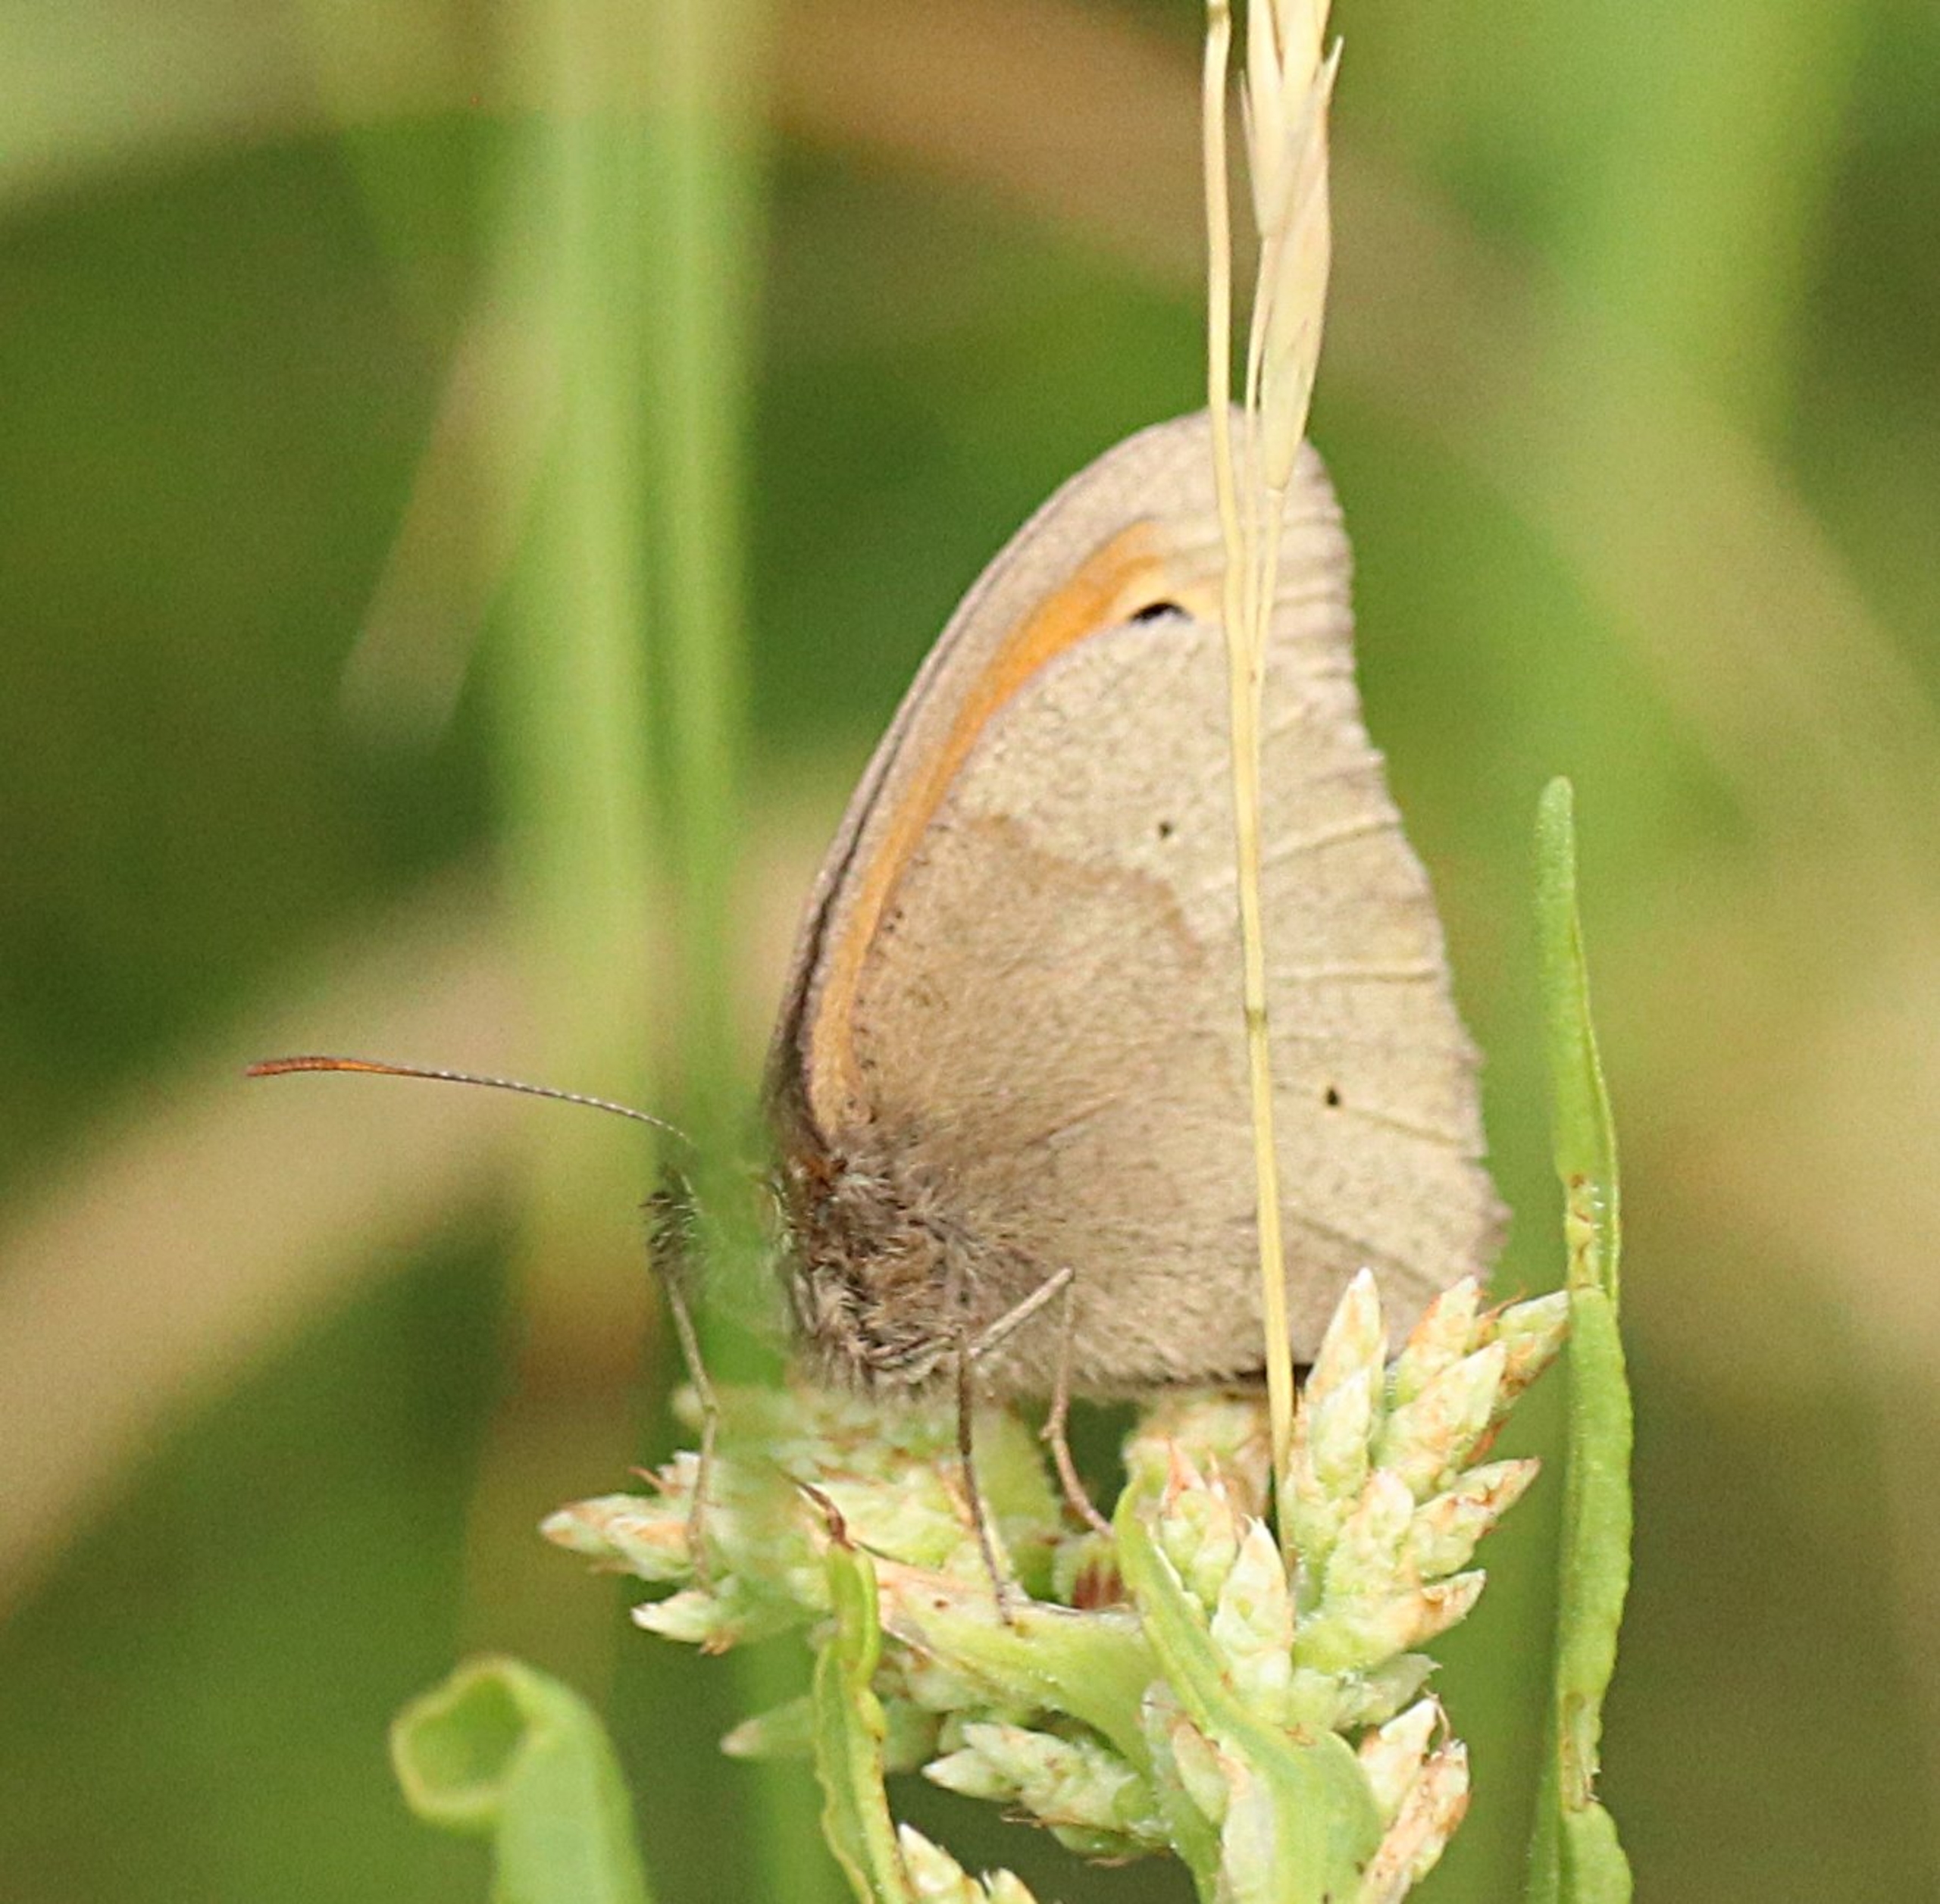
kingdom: Animalia
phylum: Arthropoda
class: Insecta
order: Lepidoptera
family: Nymphalidae
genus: Maniola
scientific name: Maniola jurtina
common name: Græsrandøje
